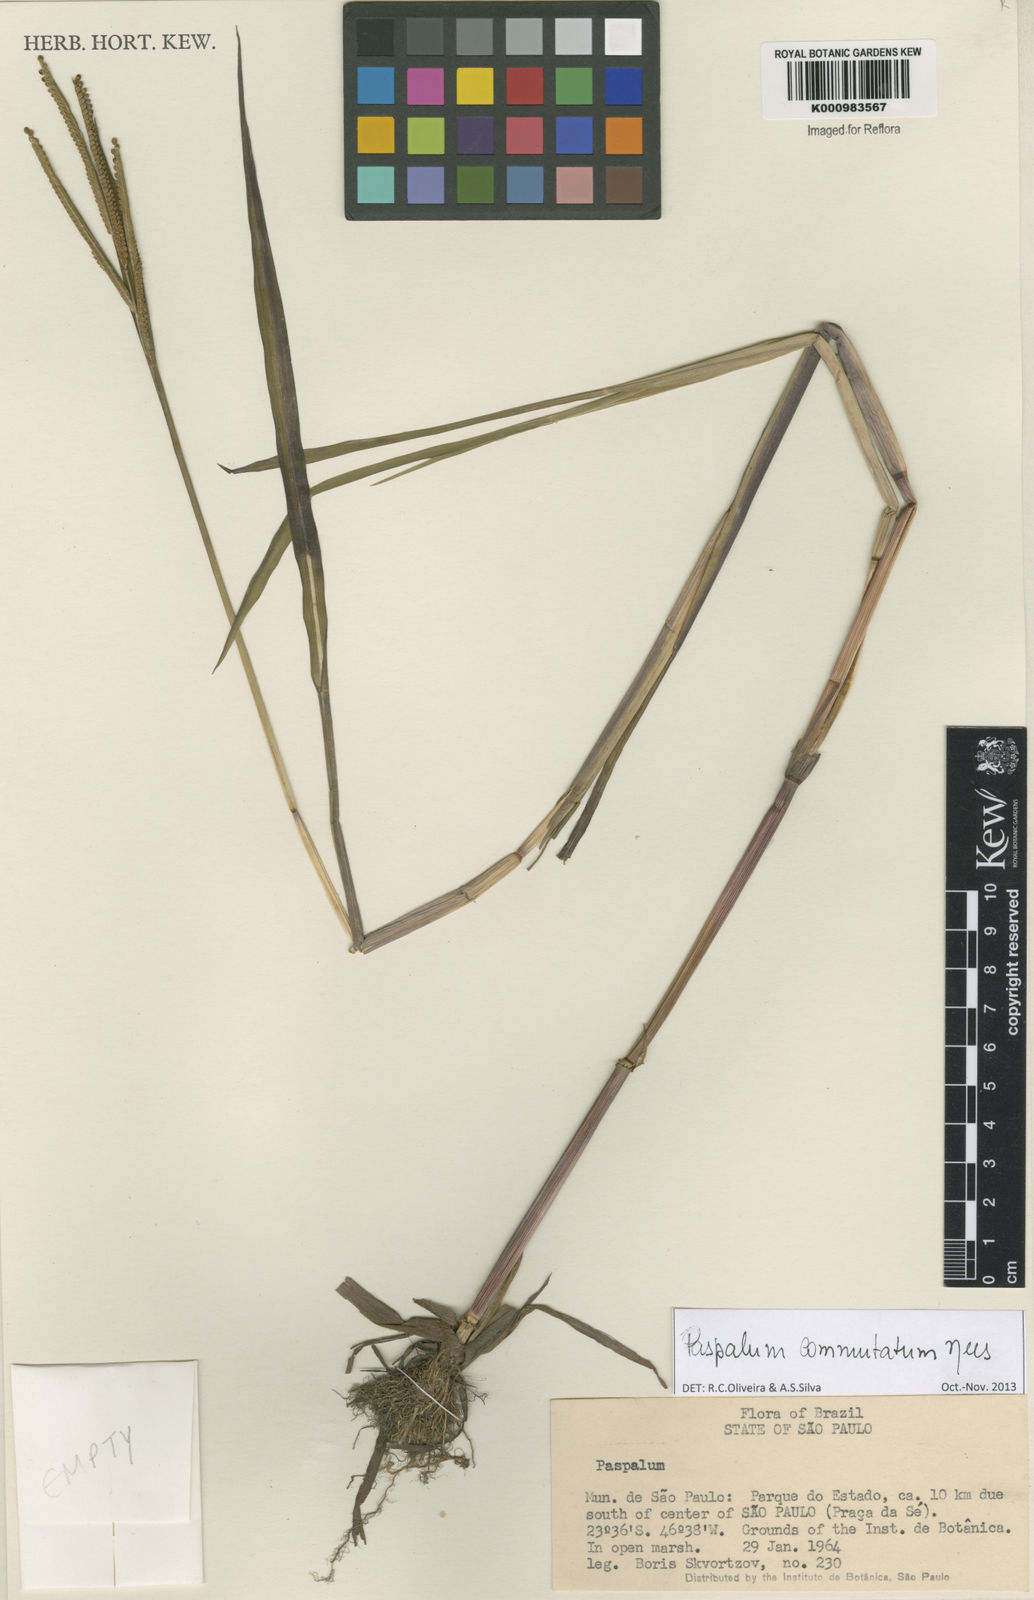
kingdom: Plantae
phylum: Tracheophyta
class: Liliopsida
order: Poales
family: Poaceae
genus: Paspalum
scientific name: Paspalum scrobiculatum
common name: Kodo millet
